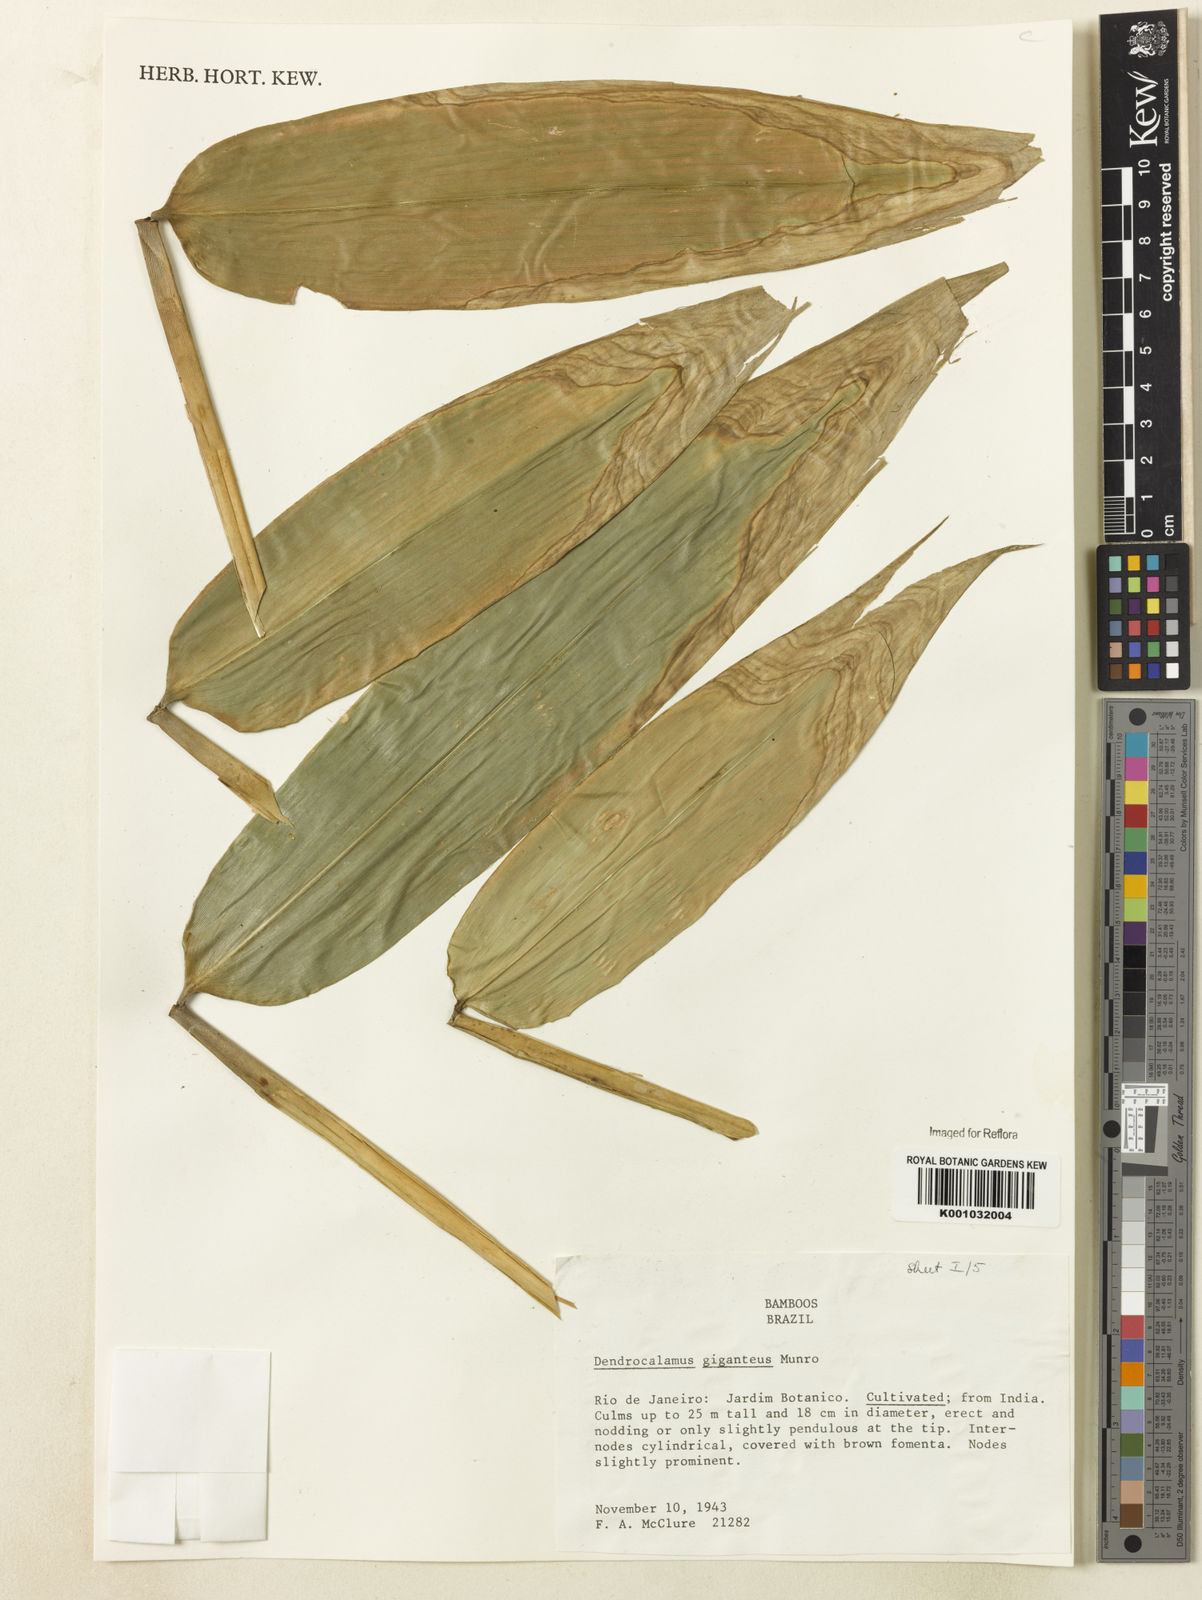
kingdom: Plantae
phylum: Tracheophyta
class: Liliopsida
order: Poales
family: Poaceae
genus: Dendrocalamus
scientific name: Dendrocalamus giganteus
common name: Giant bamboo
